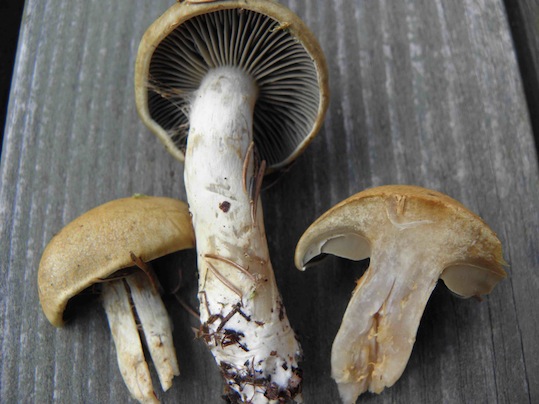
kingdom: Fungi
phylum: Basidiomycota
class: Agaricomycetes
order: Agaricales
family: Cortinariaceae
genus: Cortinarius
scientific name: Cortinarius subtortus
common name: olivengul slørhat
